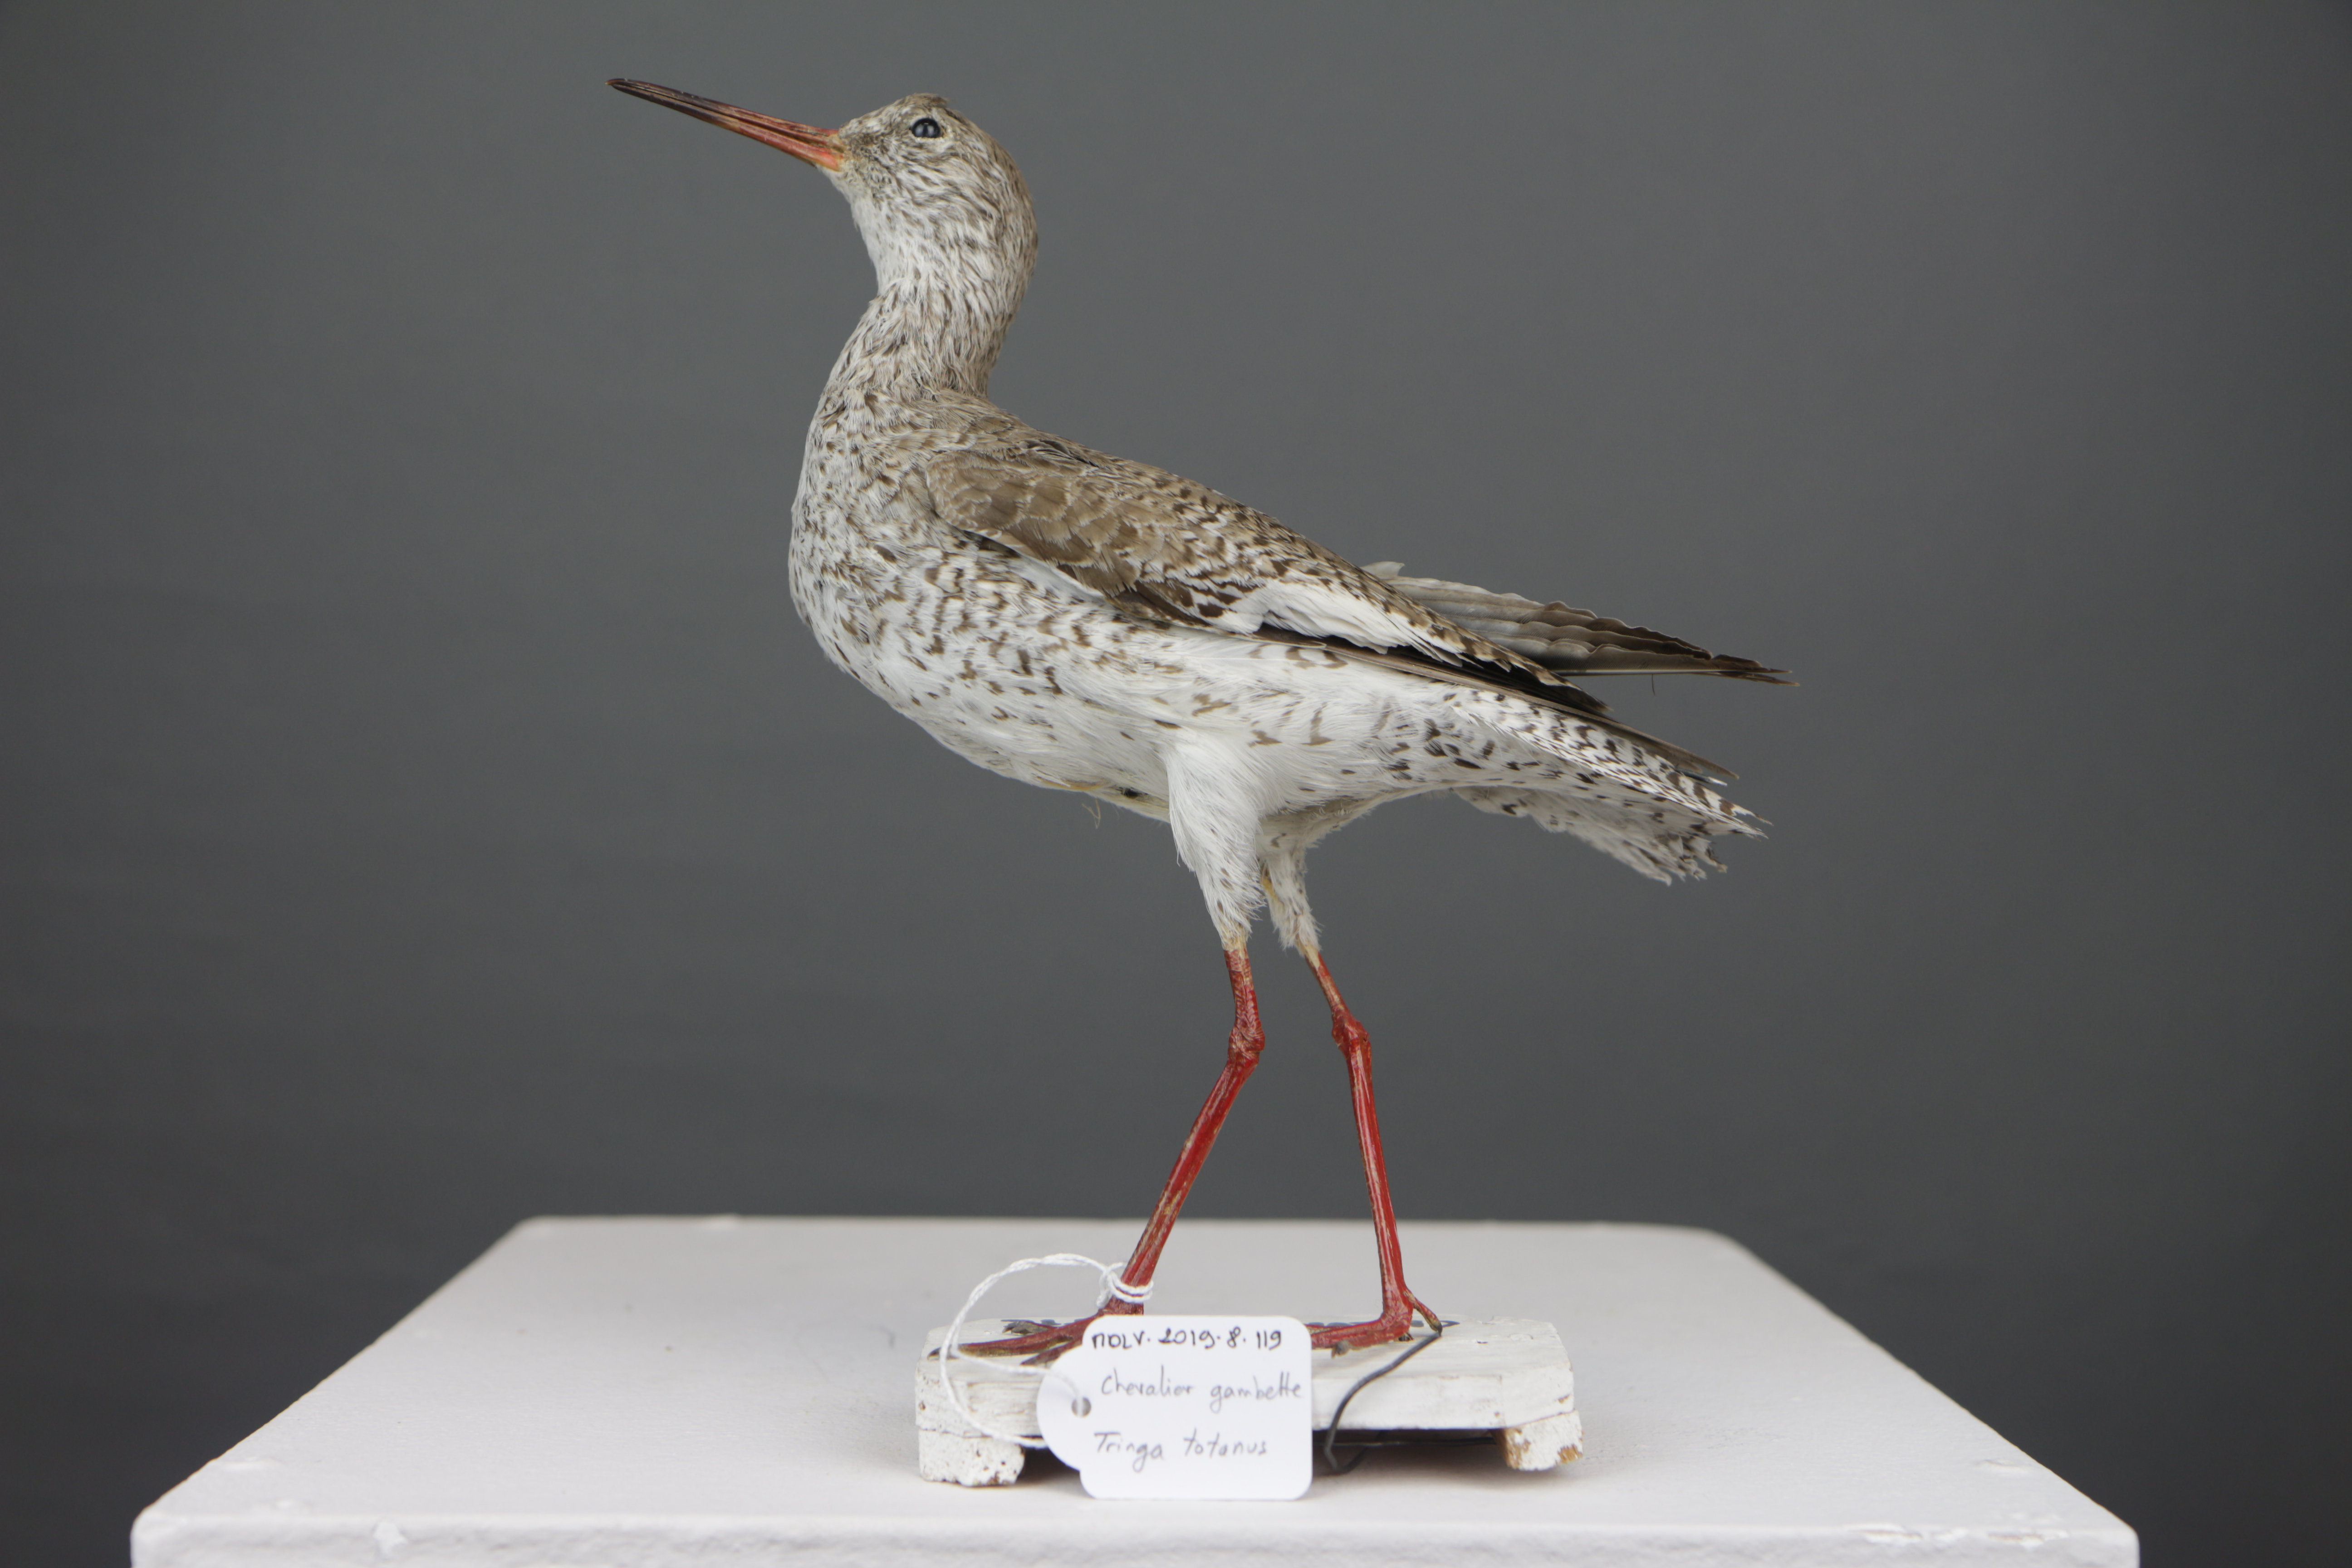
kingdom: Animalia
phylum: Chordata
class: Aves
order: Charadriiformes
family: Scolopacidae
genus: Tringa
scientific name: Tringa totanus
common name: Common redshank
